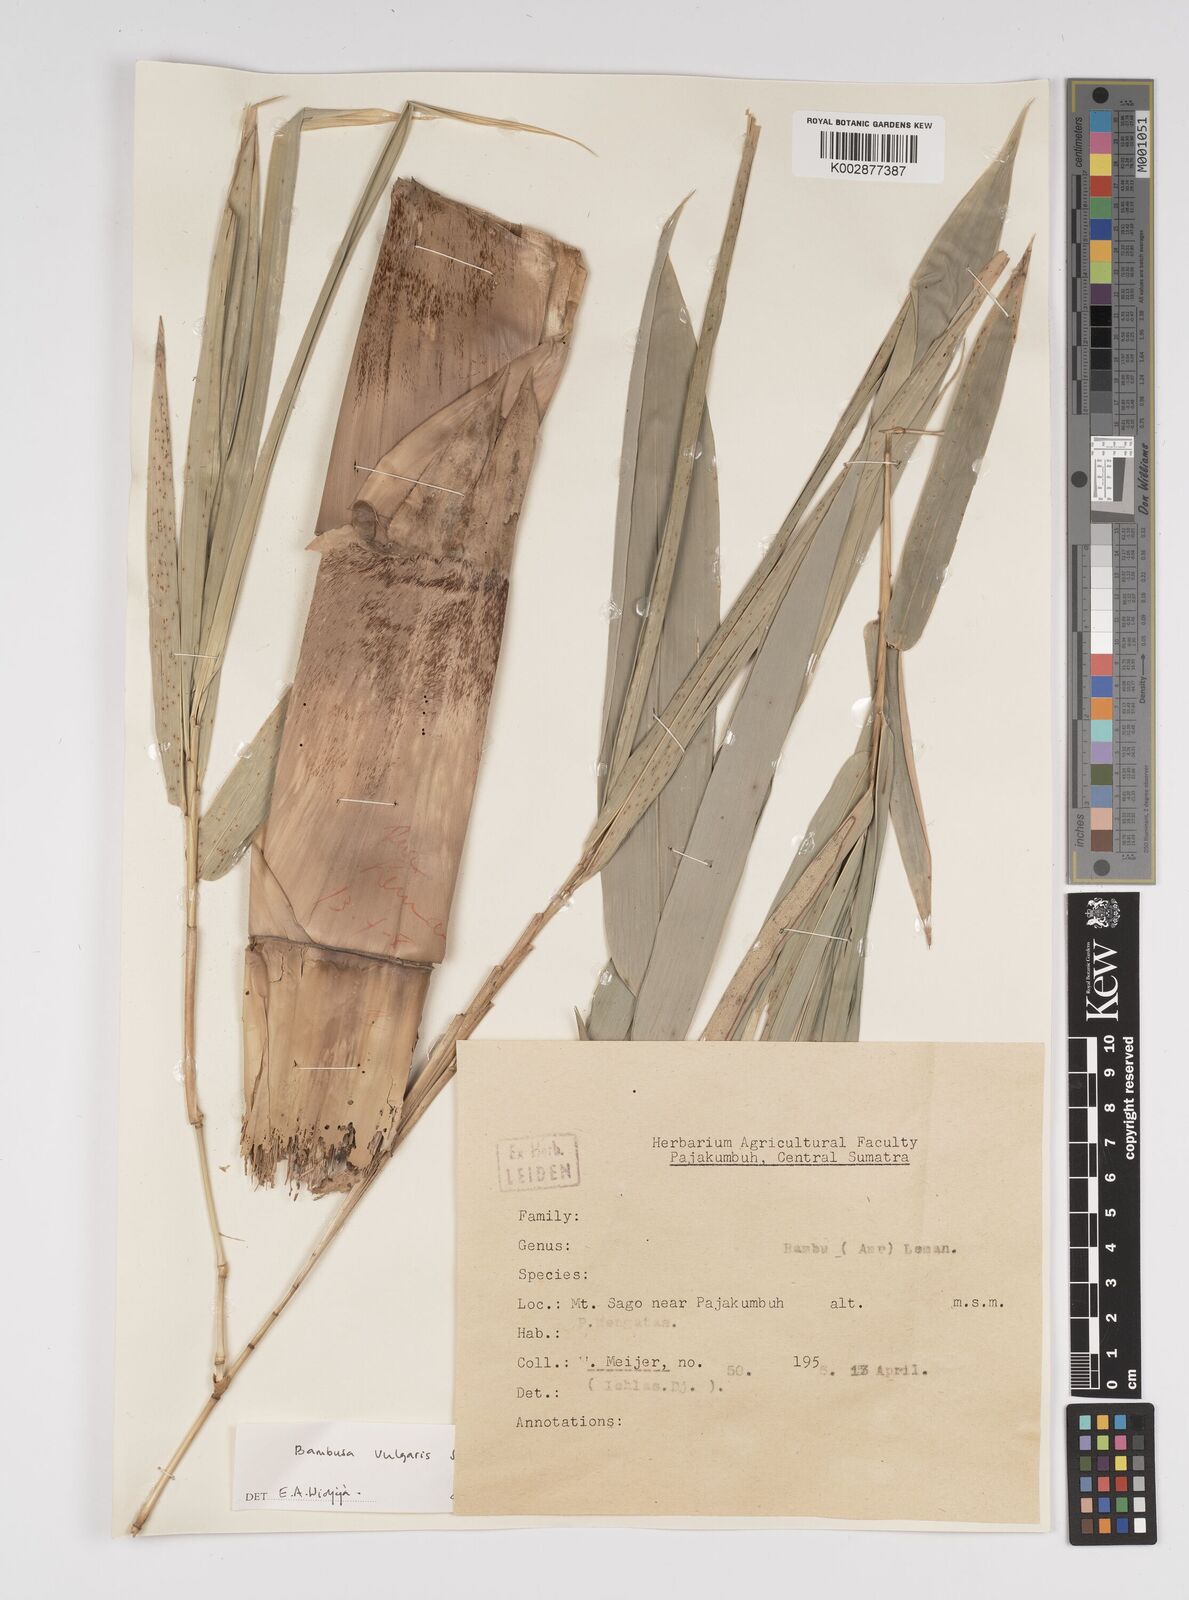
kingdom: Plantae
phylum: Tracheophyta
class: Liliopsida
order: Poales
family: Poaceae
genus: Bambusa
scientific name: Bambusa
